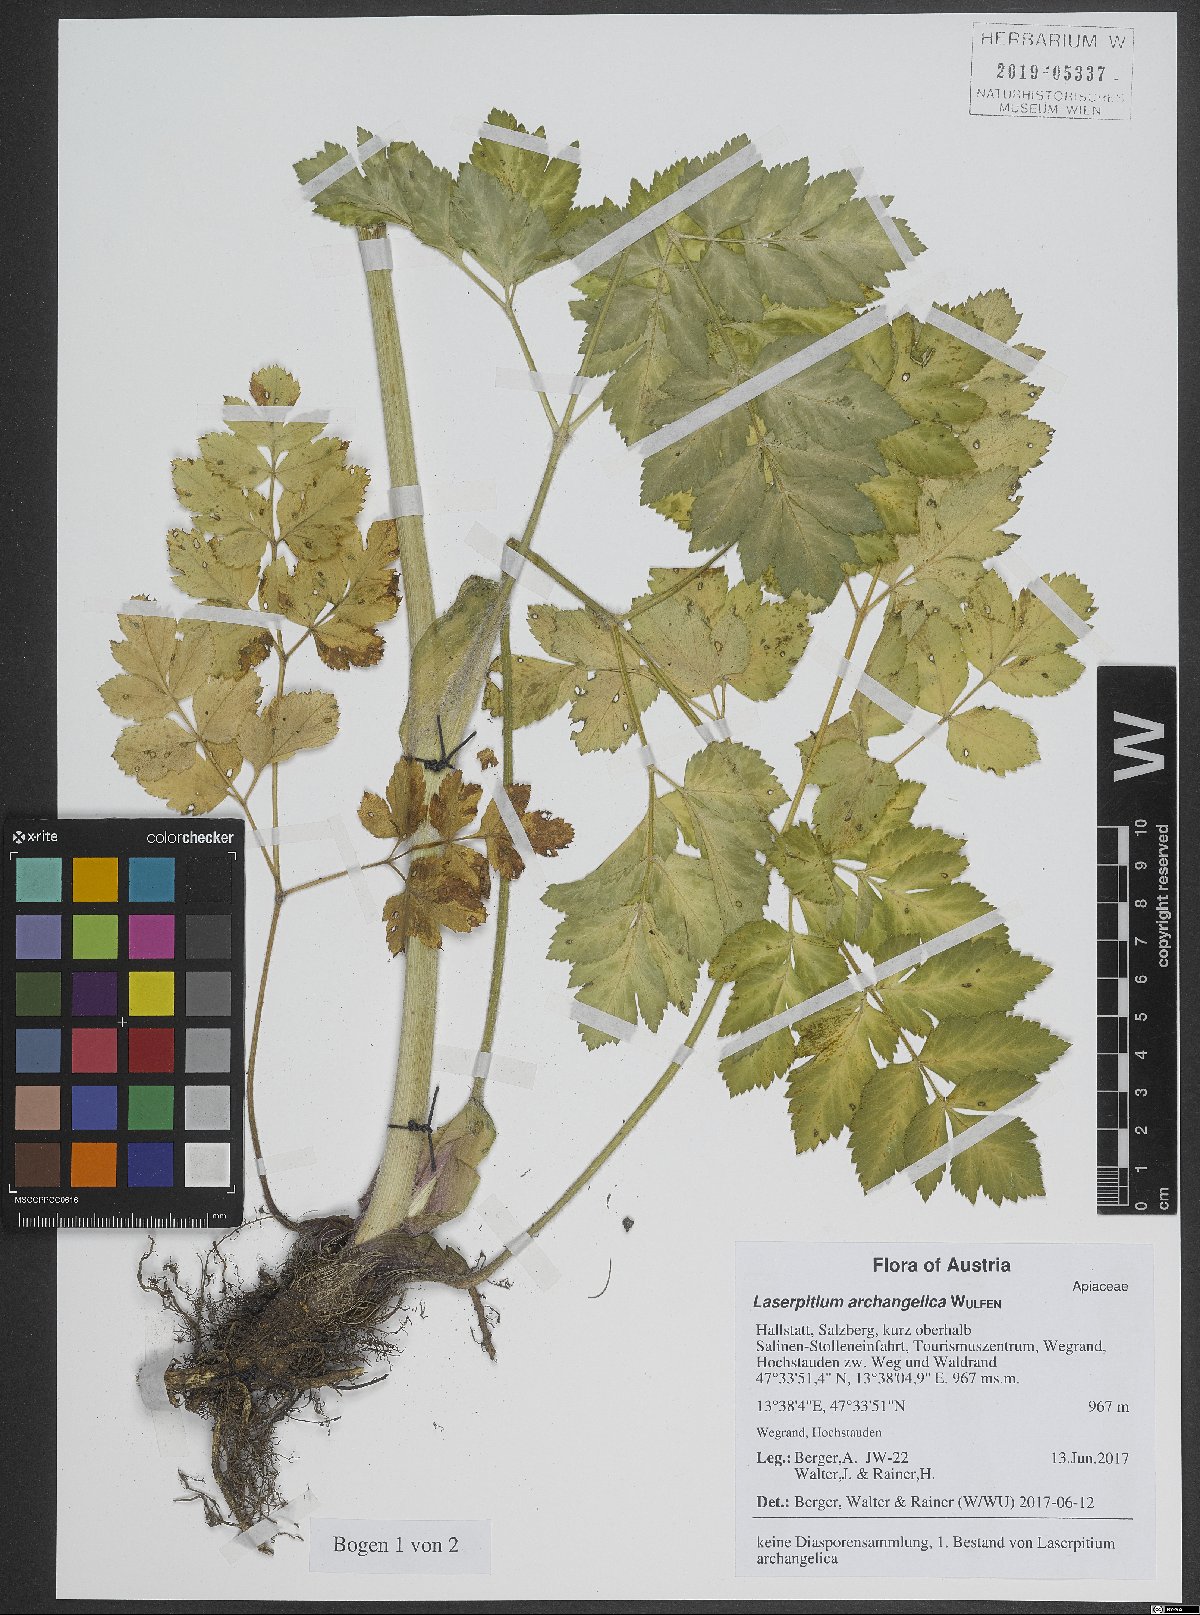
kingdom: Plantae
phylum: Tracheophyta
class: Magnoliopsida
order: Apiales
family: Apiaceae
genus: Laser
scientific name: Laser archangelica
